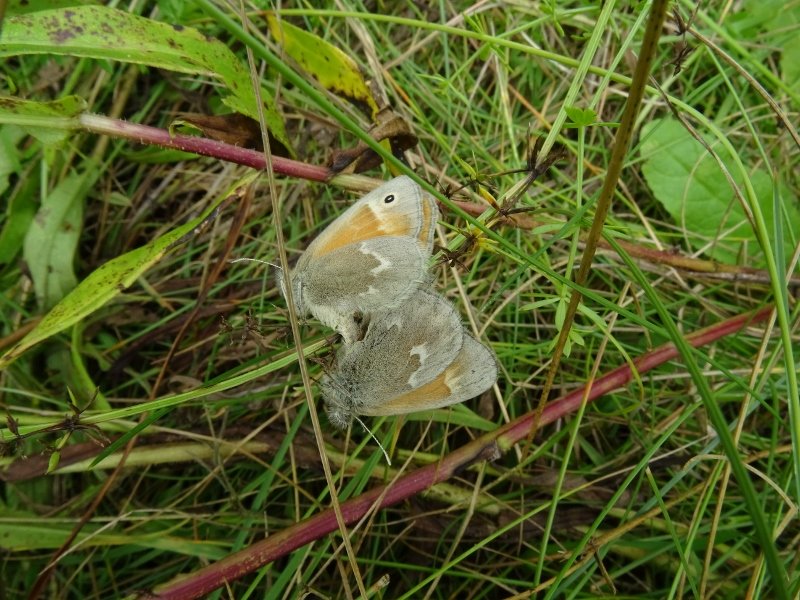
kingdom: Animalia
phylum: Arthropoda
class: Insecta
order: Lepidoptera
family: Nymphalidae
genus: Coenonympha
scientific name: Coenonympha tullia
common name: Large Heath
